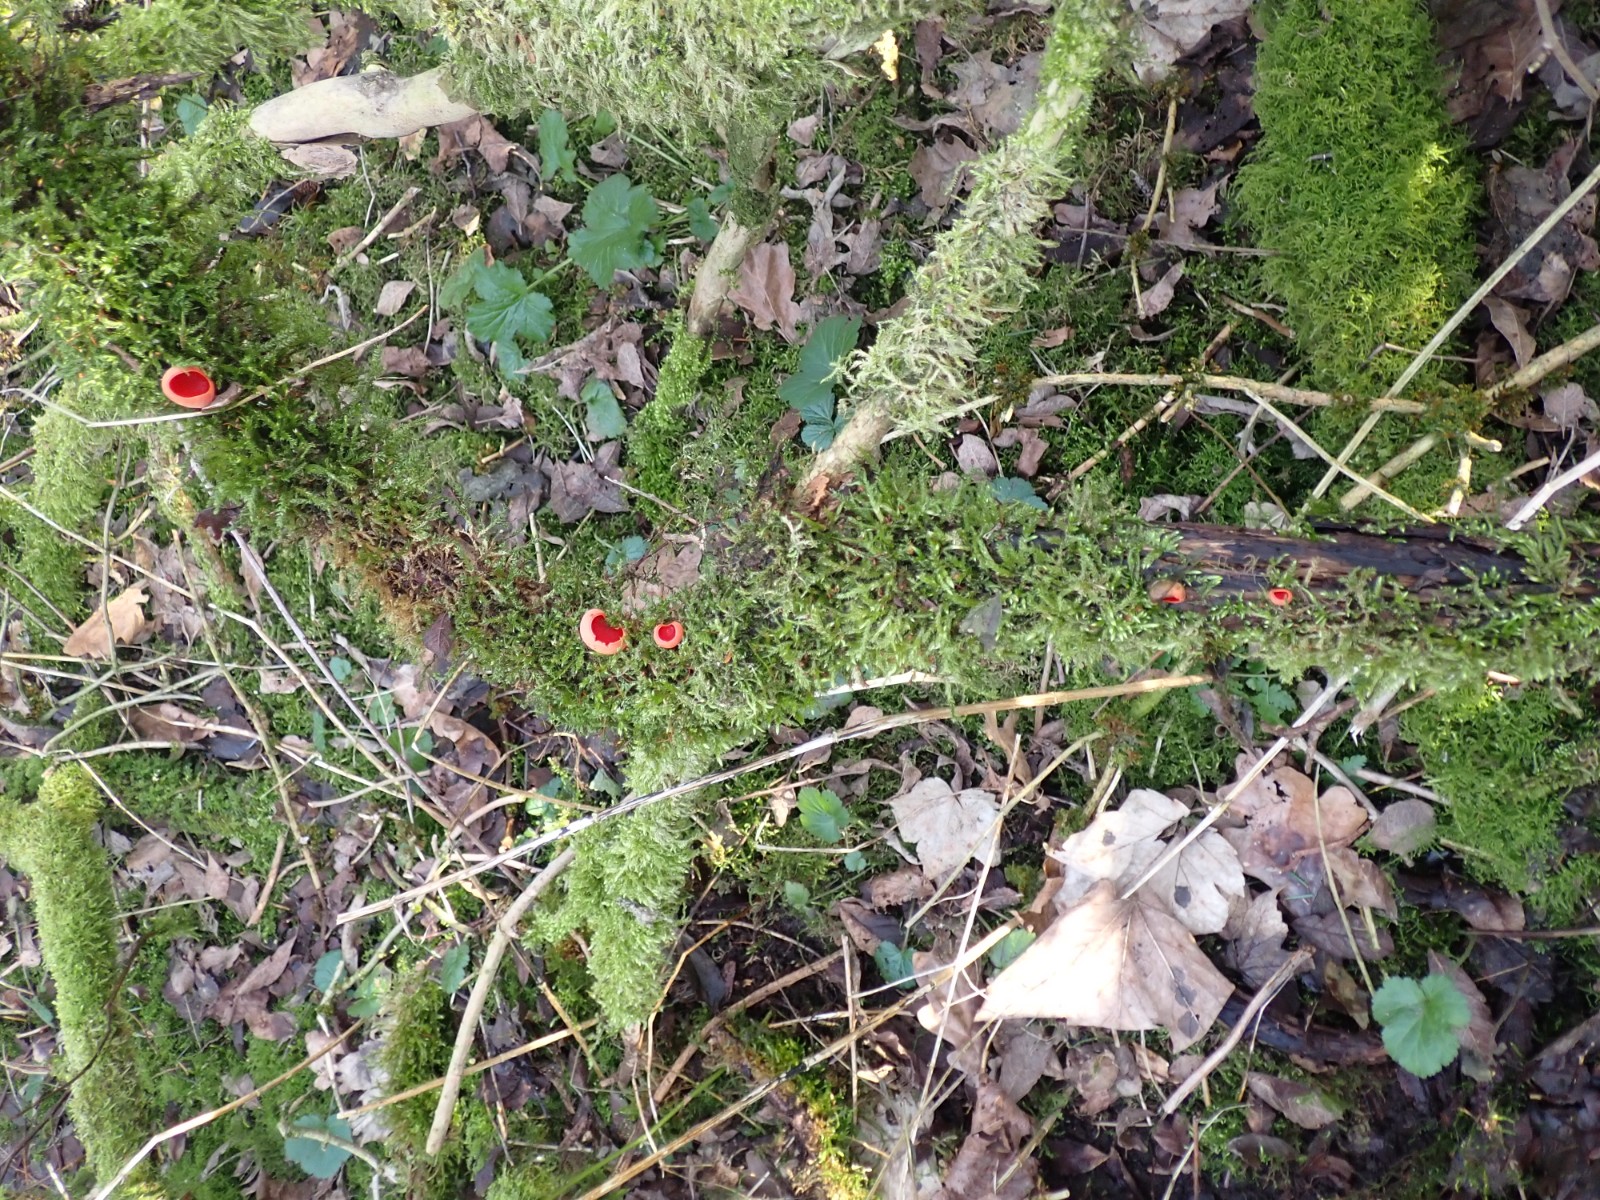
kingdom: Fungi
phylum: Ascomycota
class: Pezizomycetes
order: Pezizales
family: Sarcoscyphaceae
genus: Sarcoscypha
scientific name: Sarcoscypha austriaca
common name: krølhåret pragtbæger
